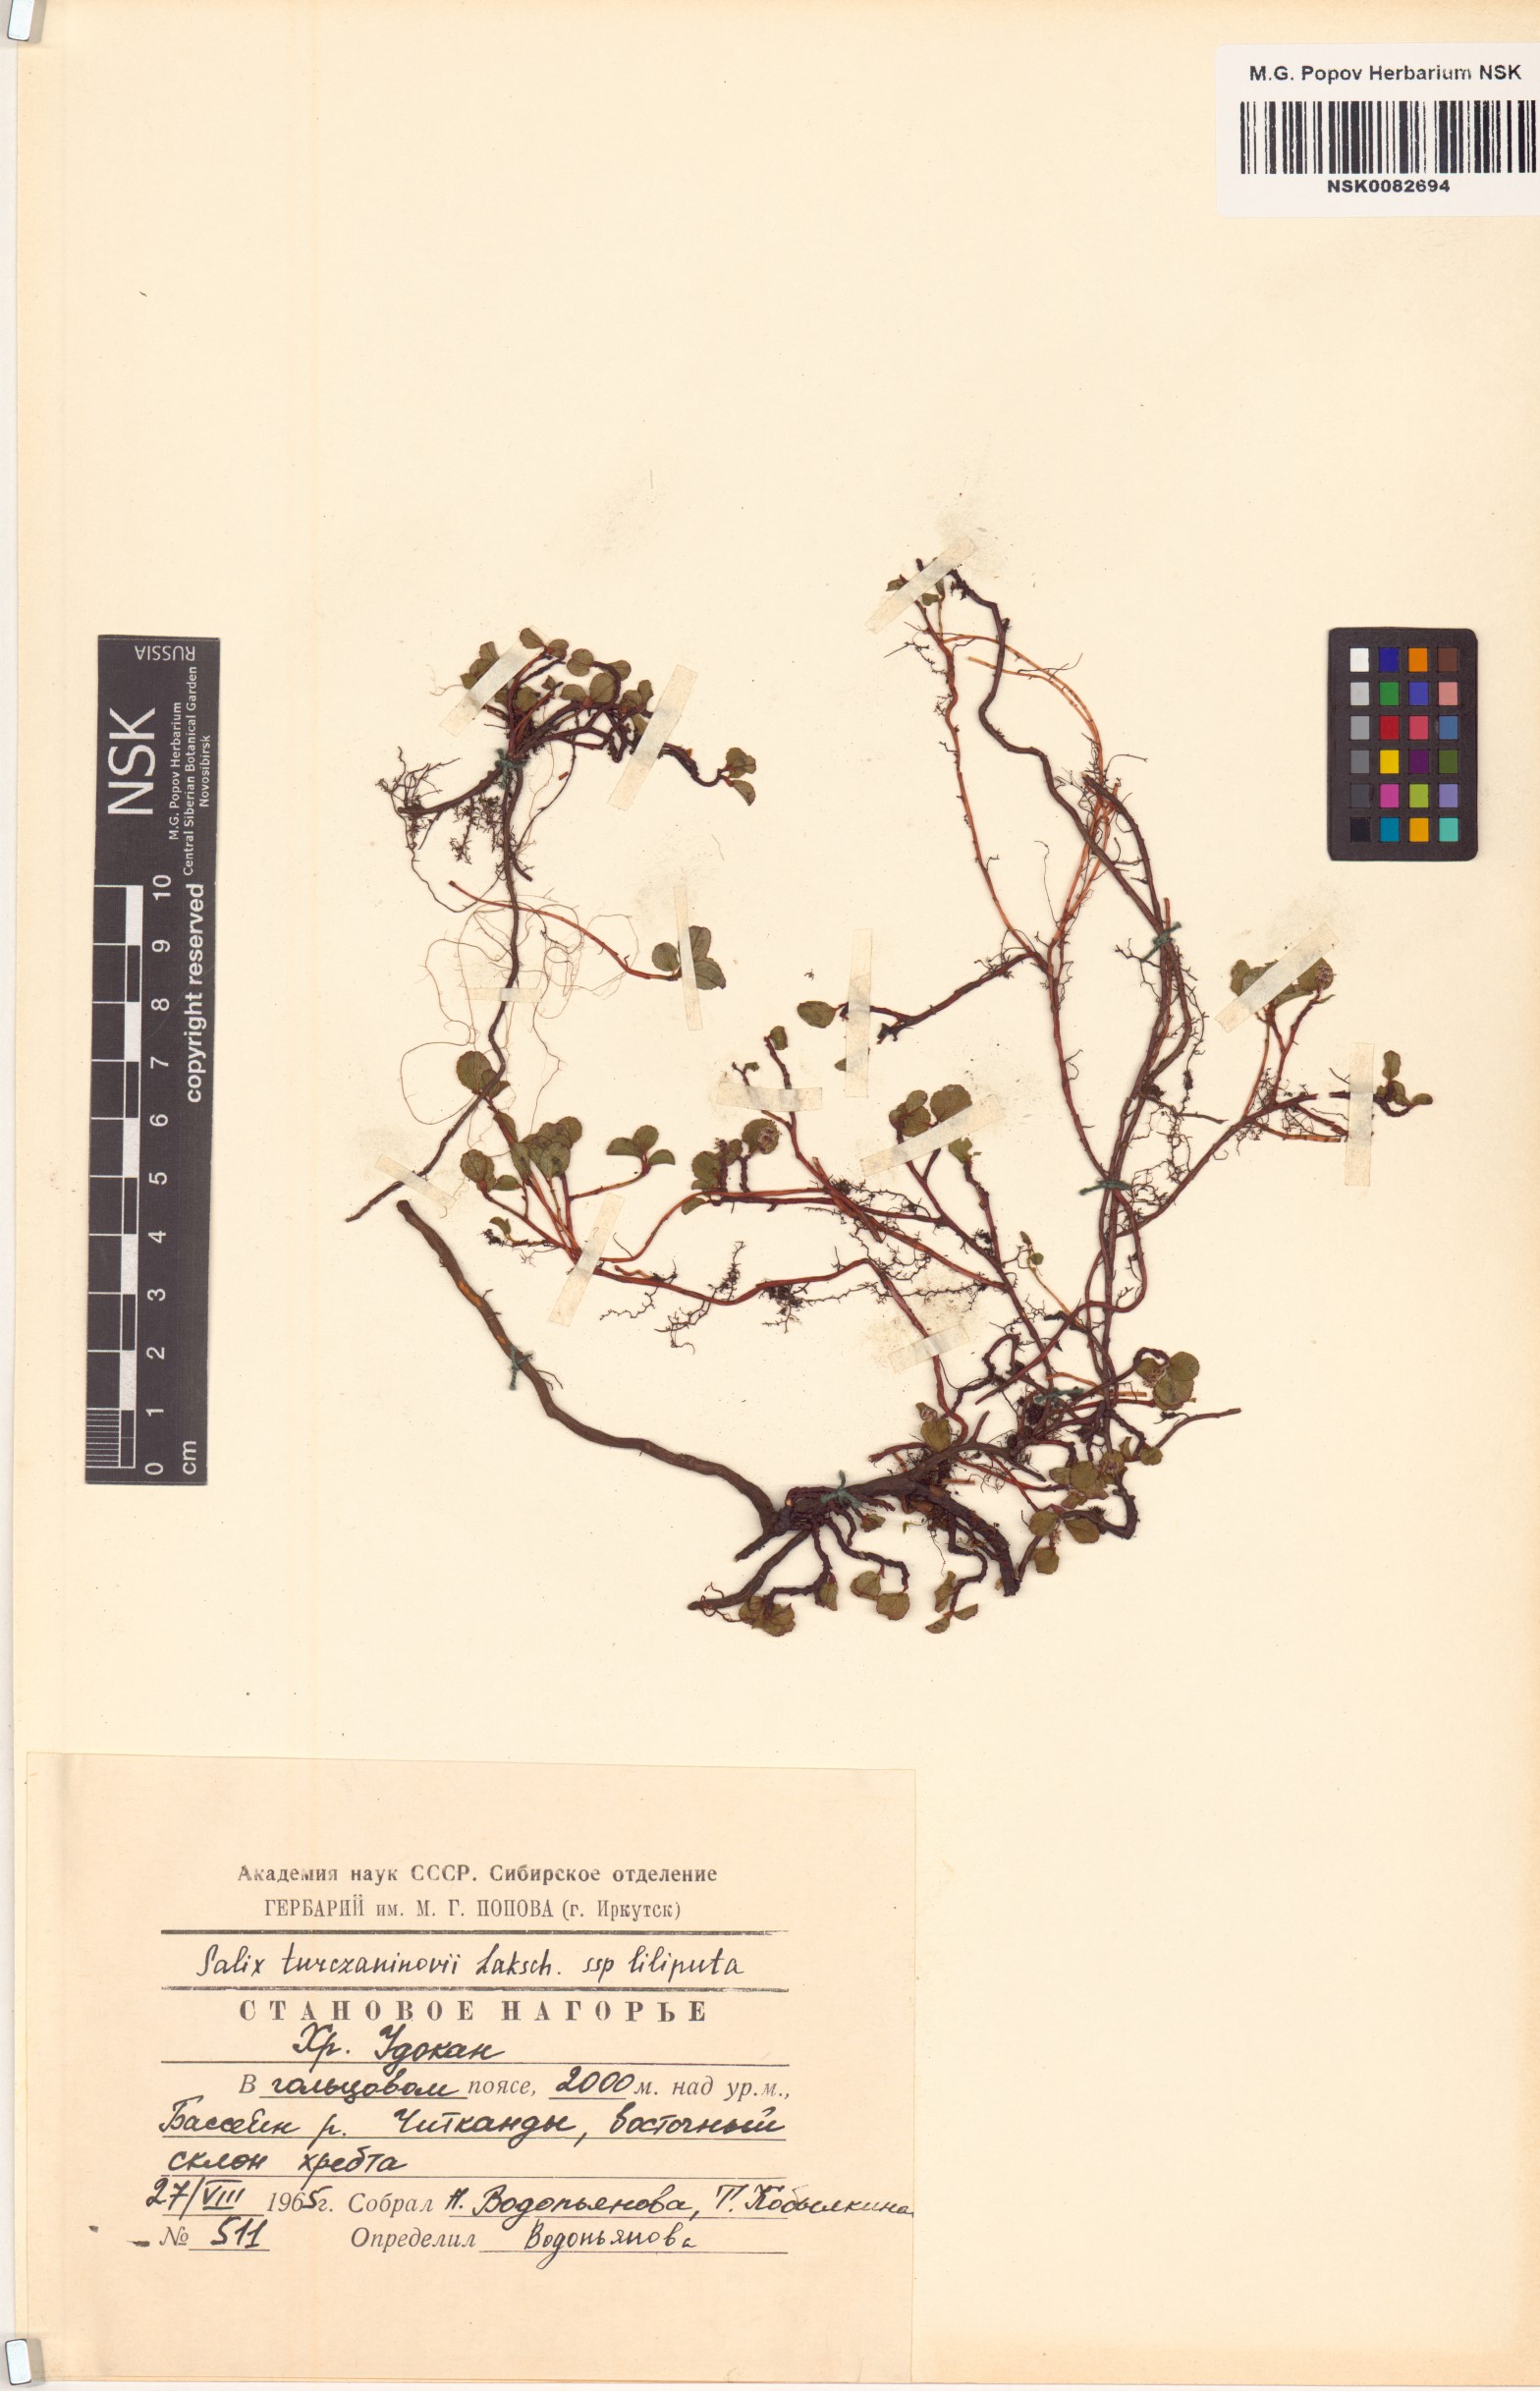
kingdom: Plantae
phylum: Tracheophyta
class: Magnoliopsida
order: Malpighiales
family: Salicaceae
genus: Salix
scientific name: Salix turczaninowii
